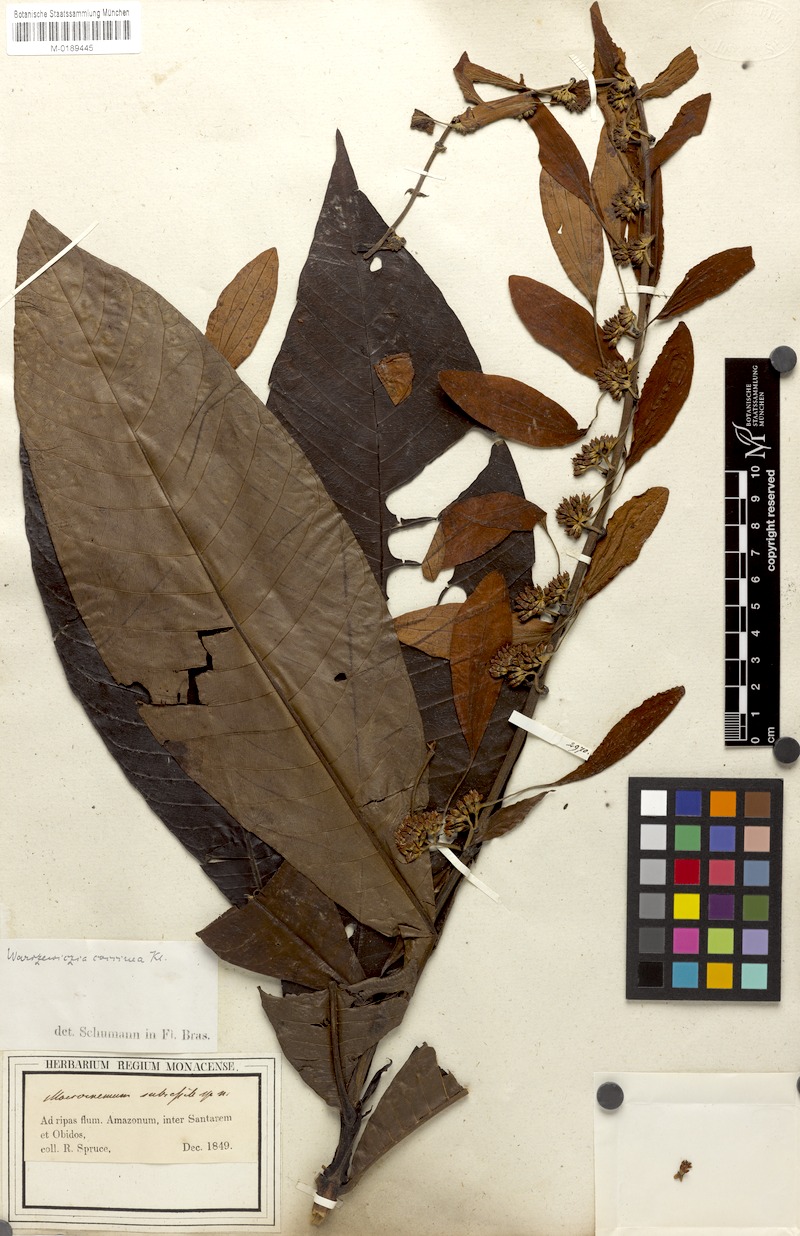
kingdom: Plantae
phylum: Tracheophyta
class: Magnoliopsida
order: Gentianales
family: Rubiaceae
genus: Warszewiczia
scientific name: Warszewiczia coccinea
